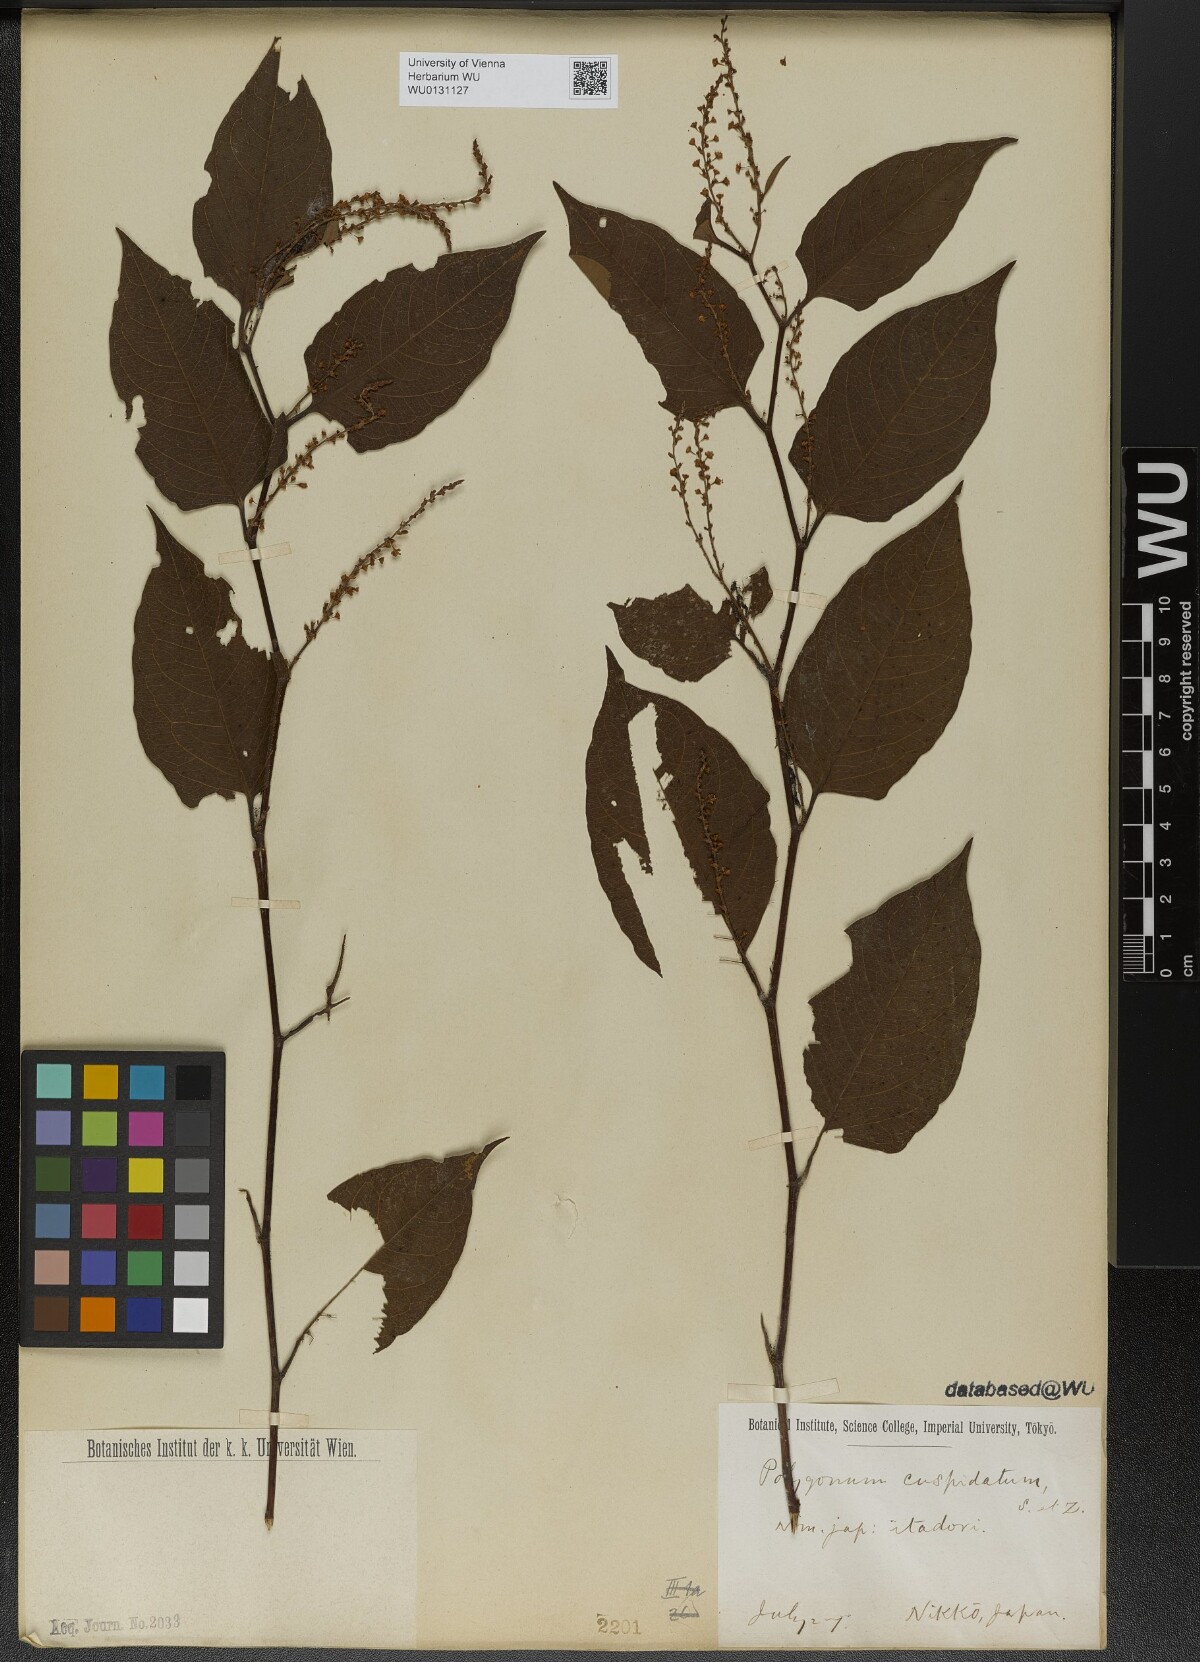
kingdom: Plantae
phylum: Tracheophyta
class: Magnoliopsida
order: Caryophyllales
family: Polygonaceae
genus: Reynoutria
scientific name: Reynoutria japonica
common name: Japanese knotweed
